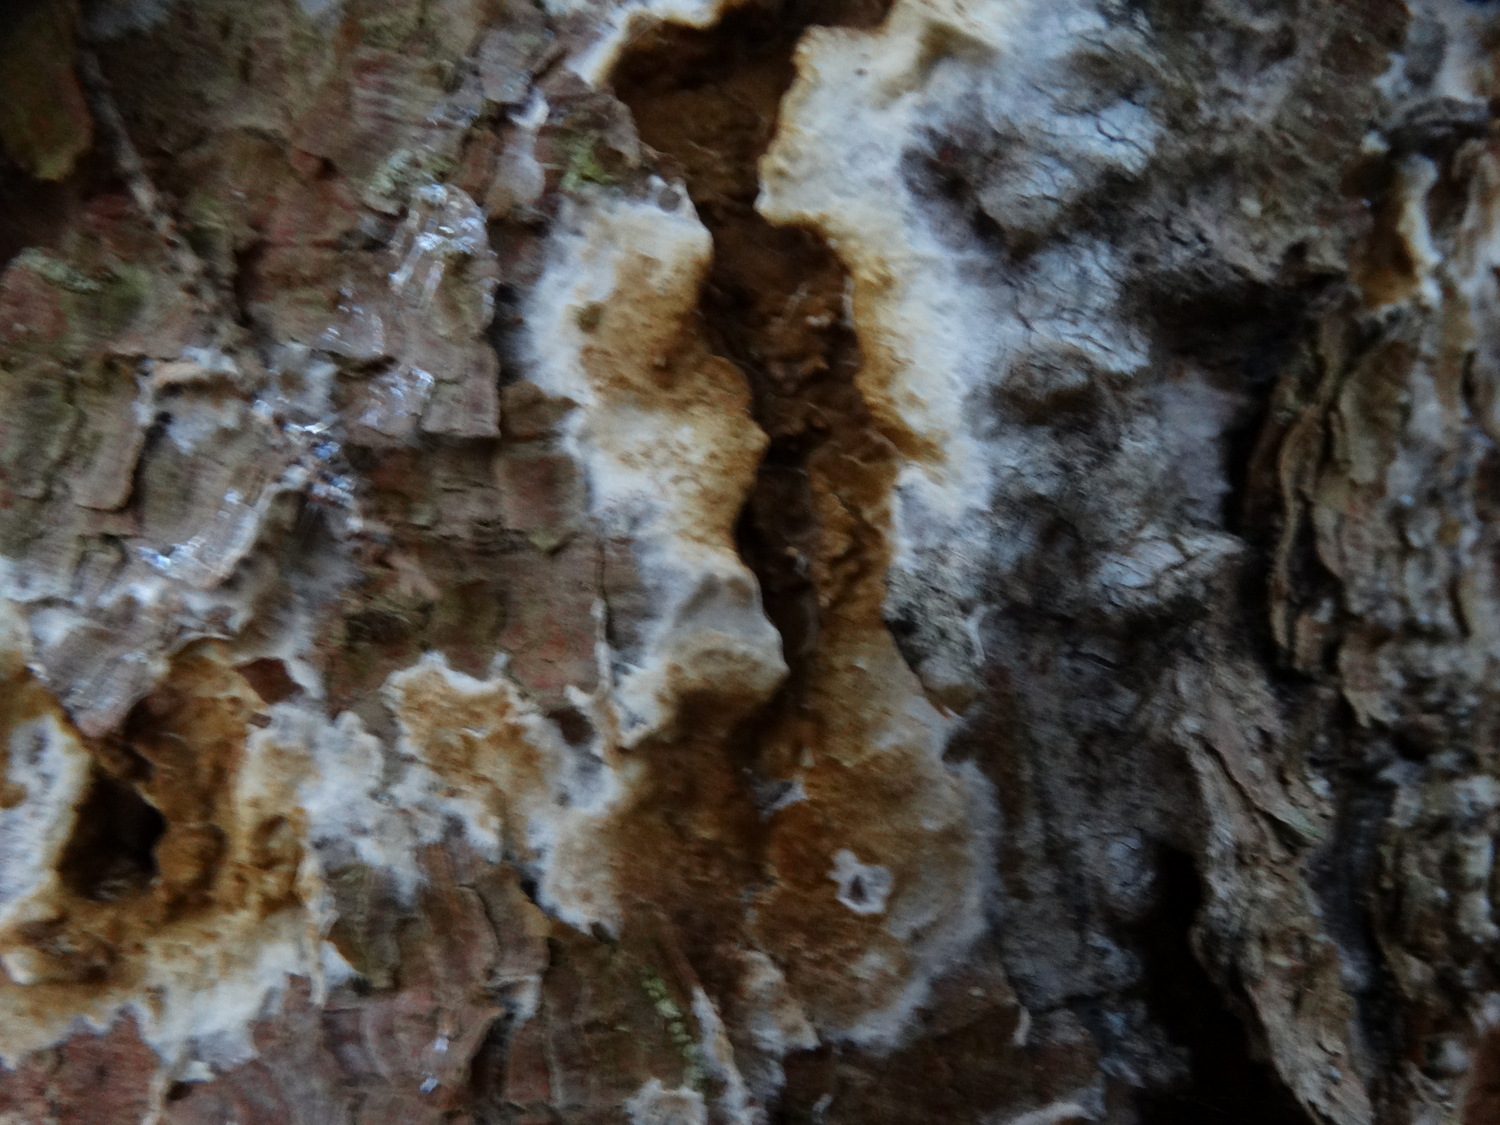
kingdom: Fungi
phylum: Basidiomycota
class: Agaricomycetes
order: Boletales
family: Coniophoraceae
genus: Coniophora
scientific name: Coniophora puteana
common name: gul tømmersvamp
